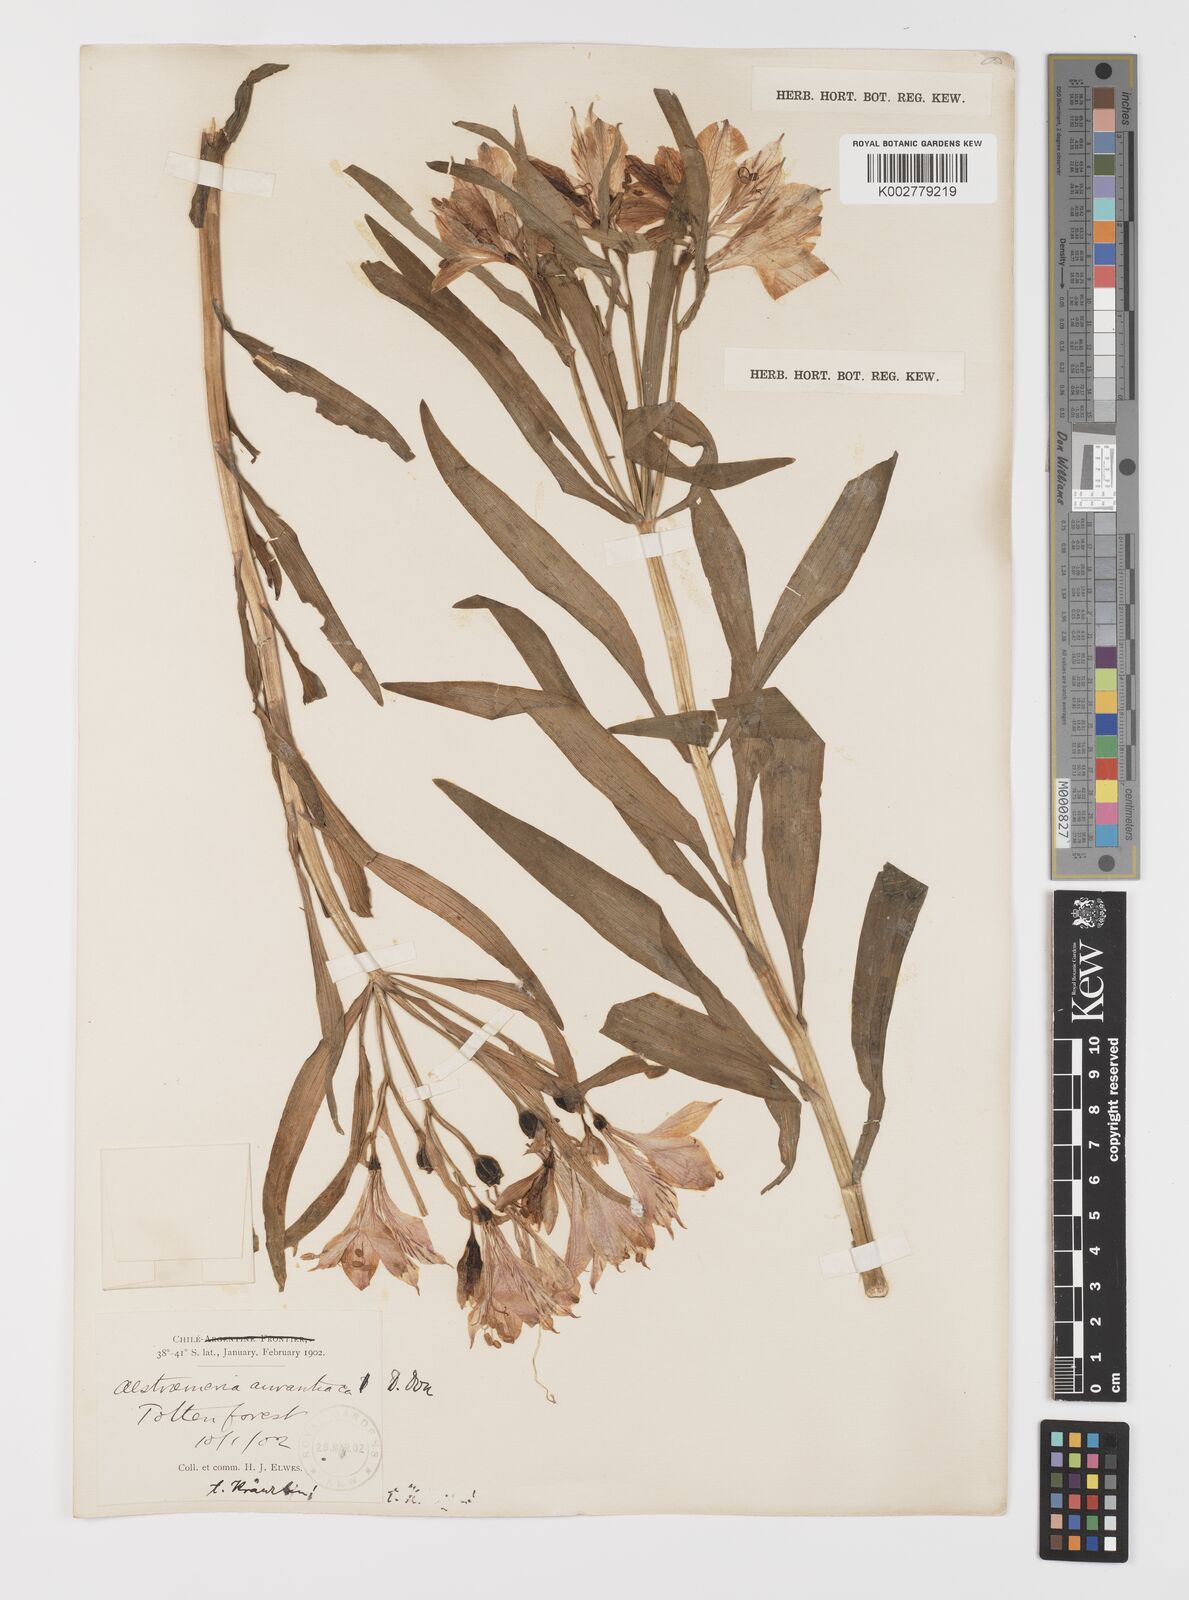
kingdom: Plantae
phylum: Tracheophyta
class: Liliopsida
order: Liliales
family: Alstroemeriaceae
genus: Alstroemeria
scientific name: Alstroemeria aurea
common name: Peruvian lily
